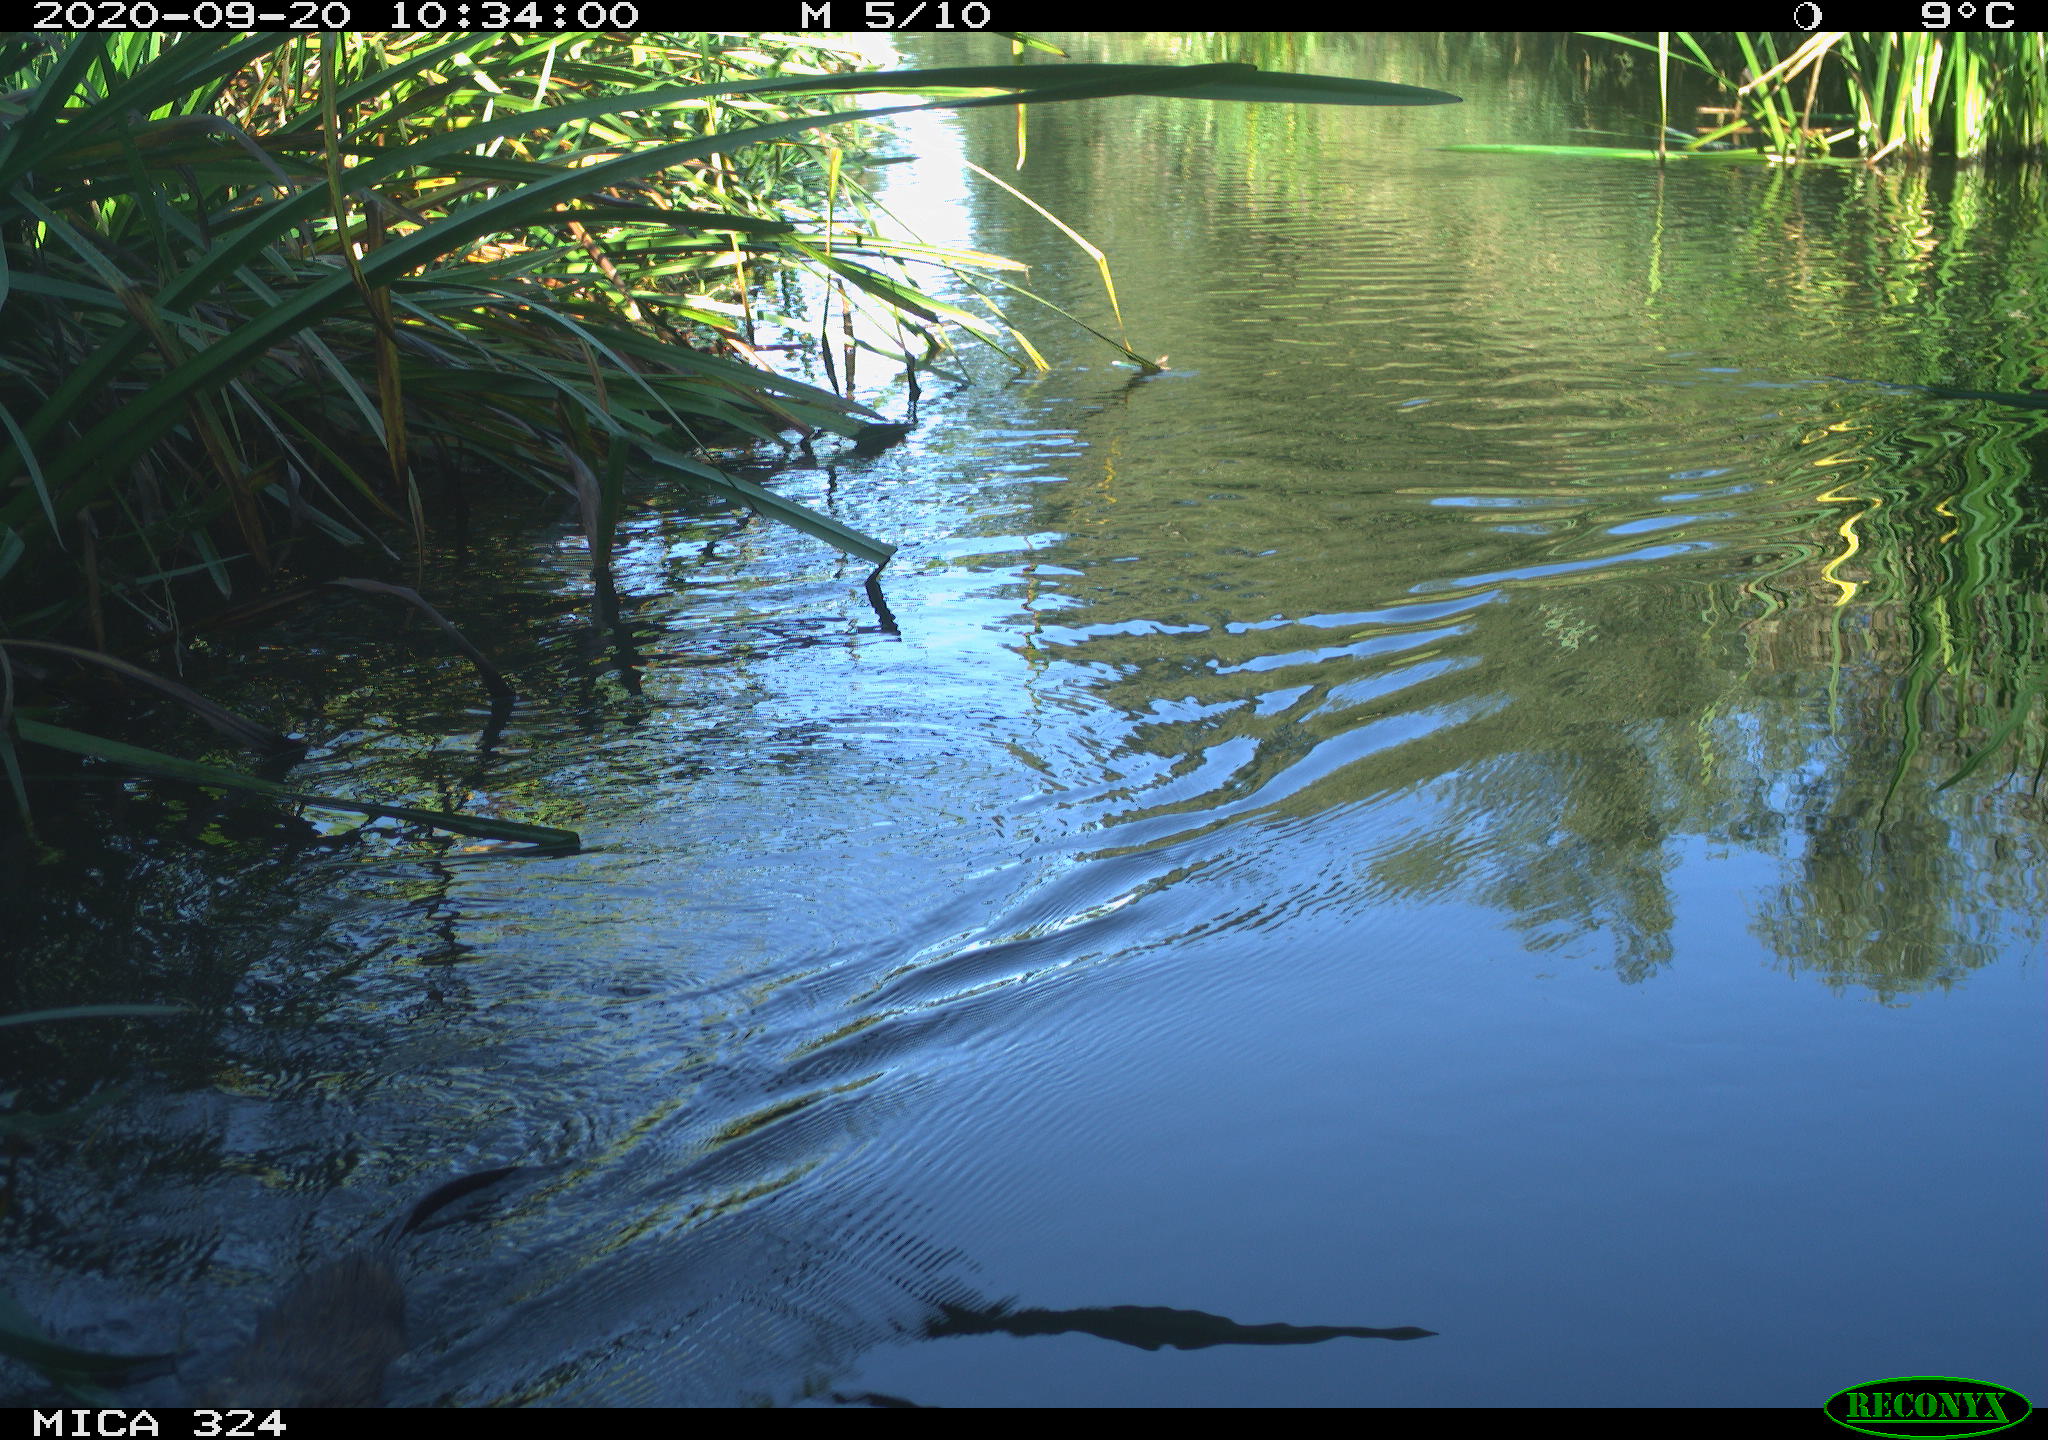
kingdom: Animalia
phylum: Chordata
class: Mammalia
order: Rodentia
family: Cricetidae
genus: Ondatra
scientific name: Ondatra zibethicus
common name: Muskrat
